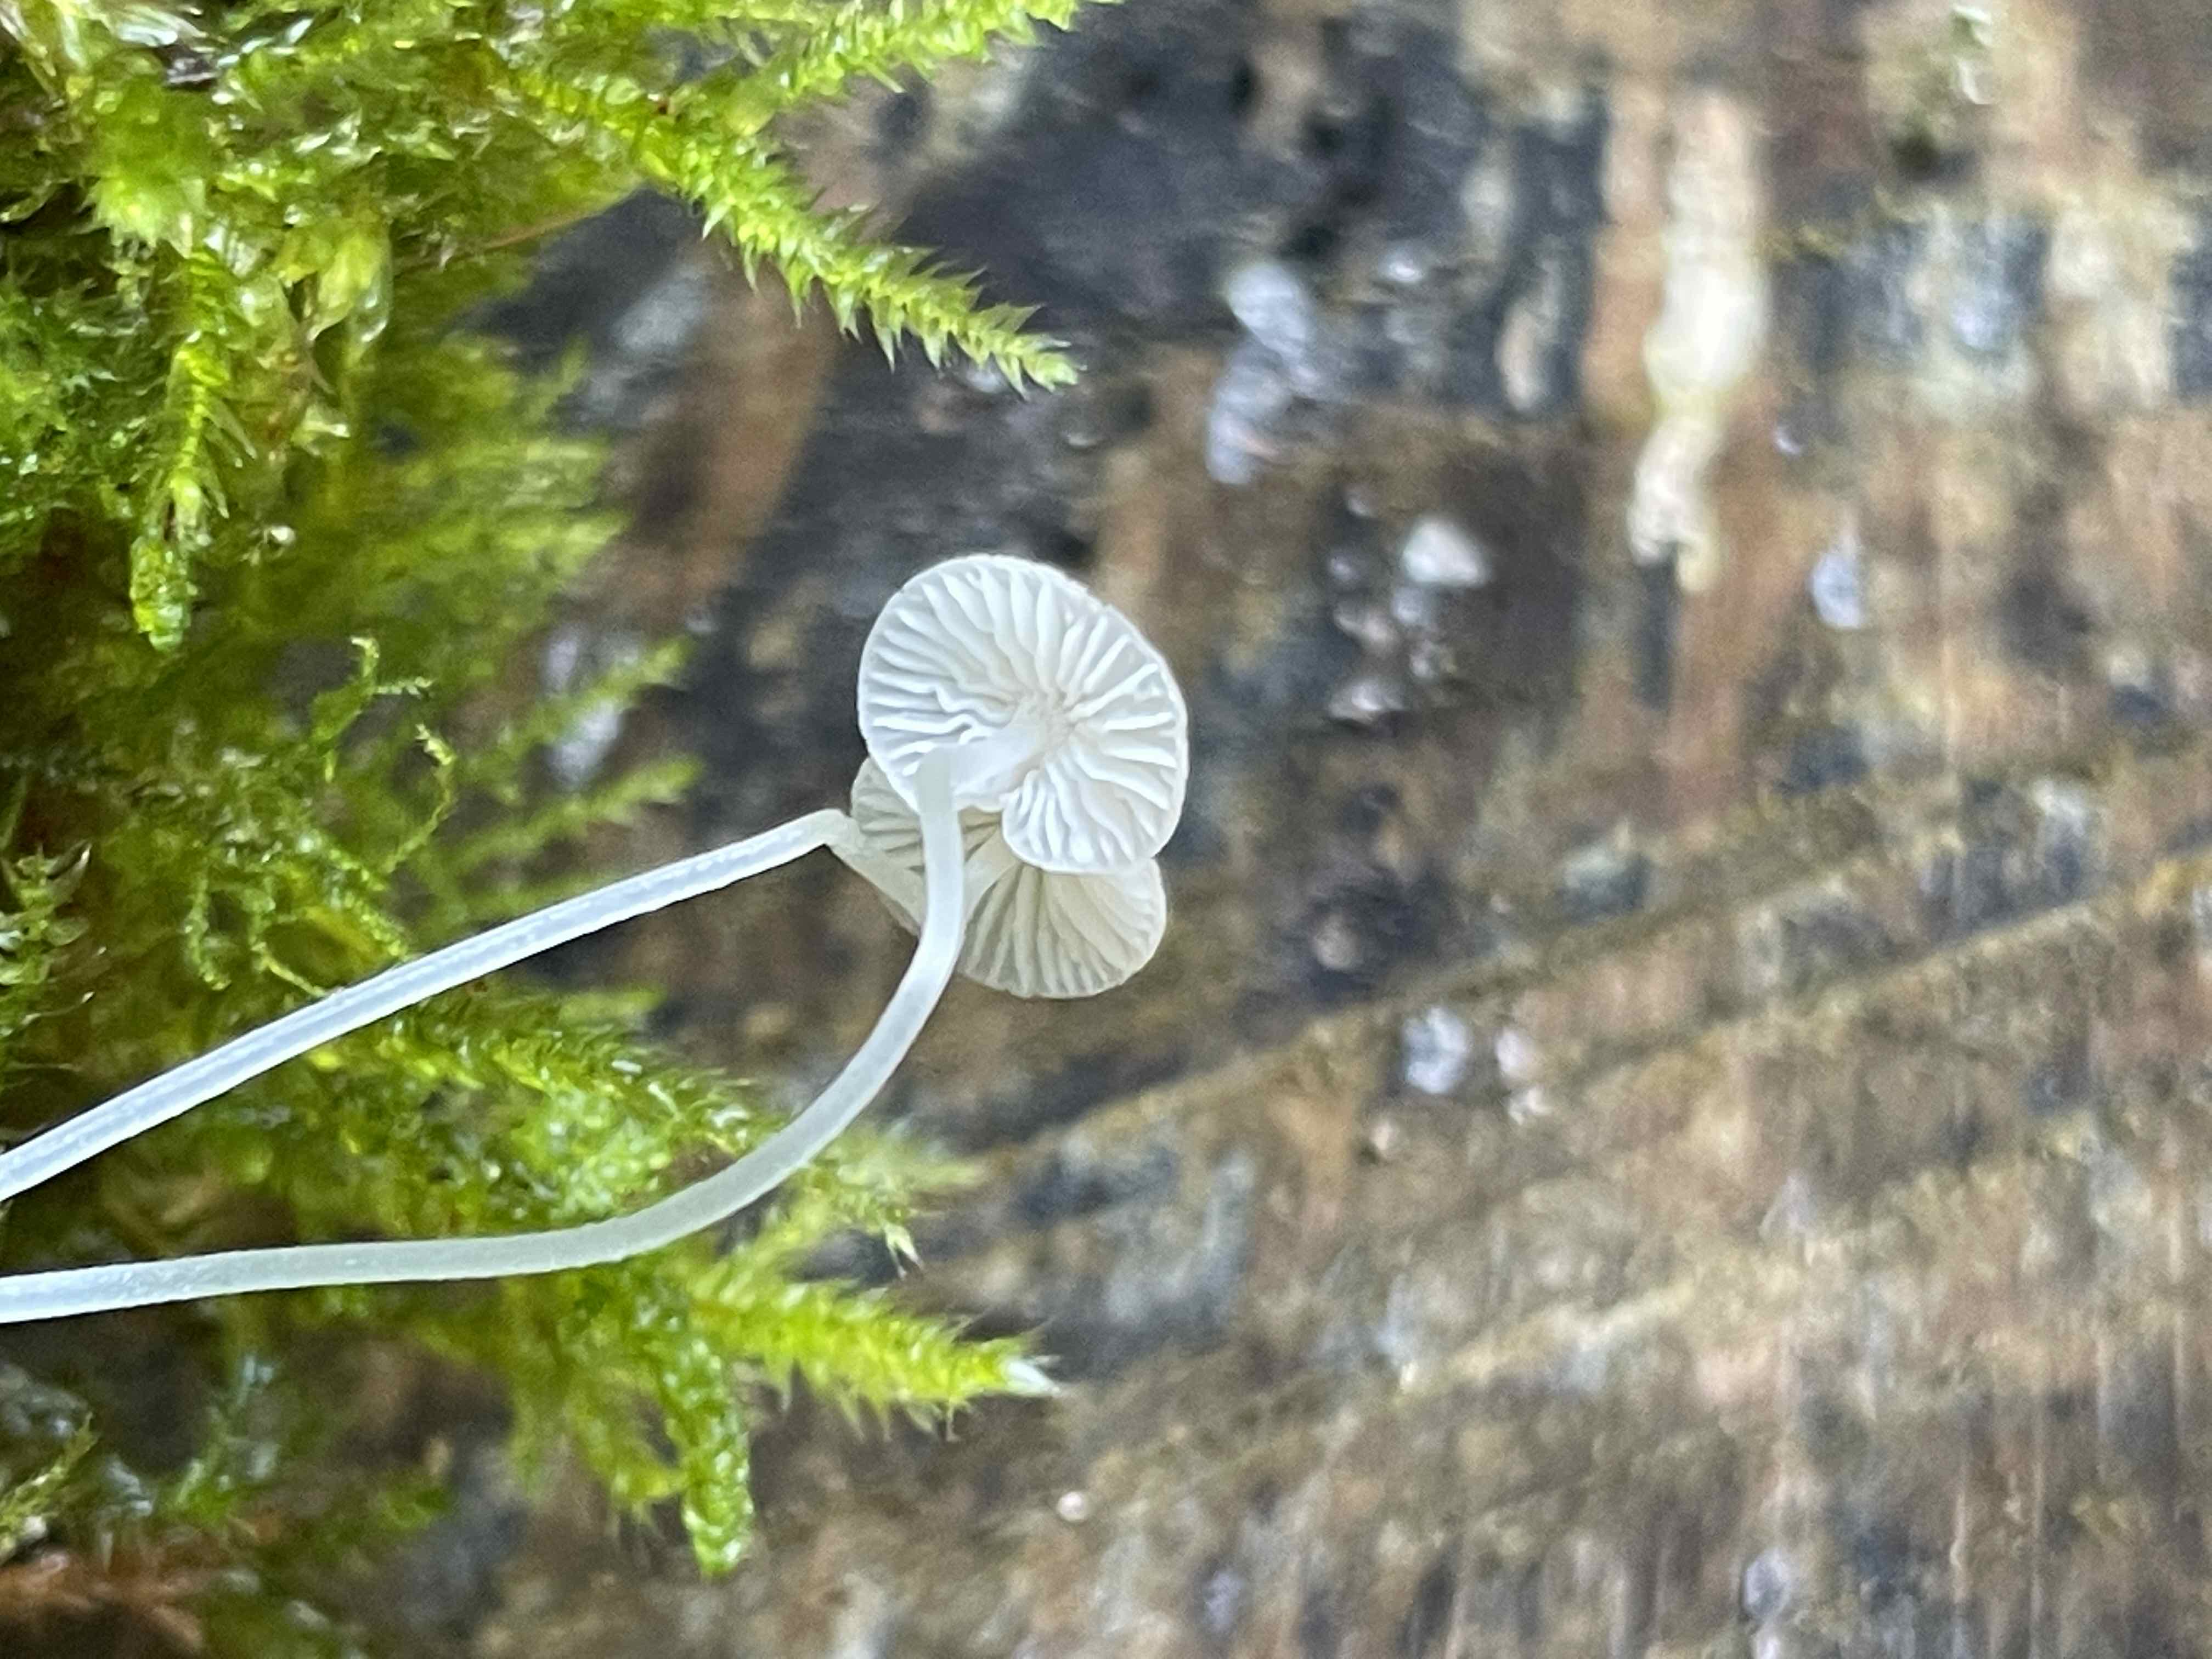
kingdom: Fungi
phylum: Basidiomycota
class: Agaricomycetes
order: Agaricales
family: Porotheleaceae
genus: Phloeomana
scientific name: Phloeomana hiemalis
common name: sen huesvamp
